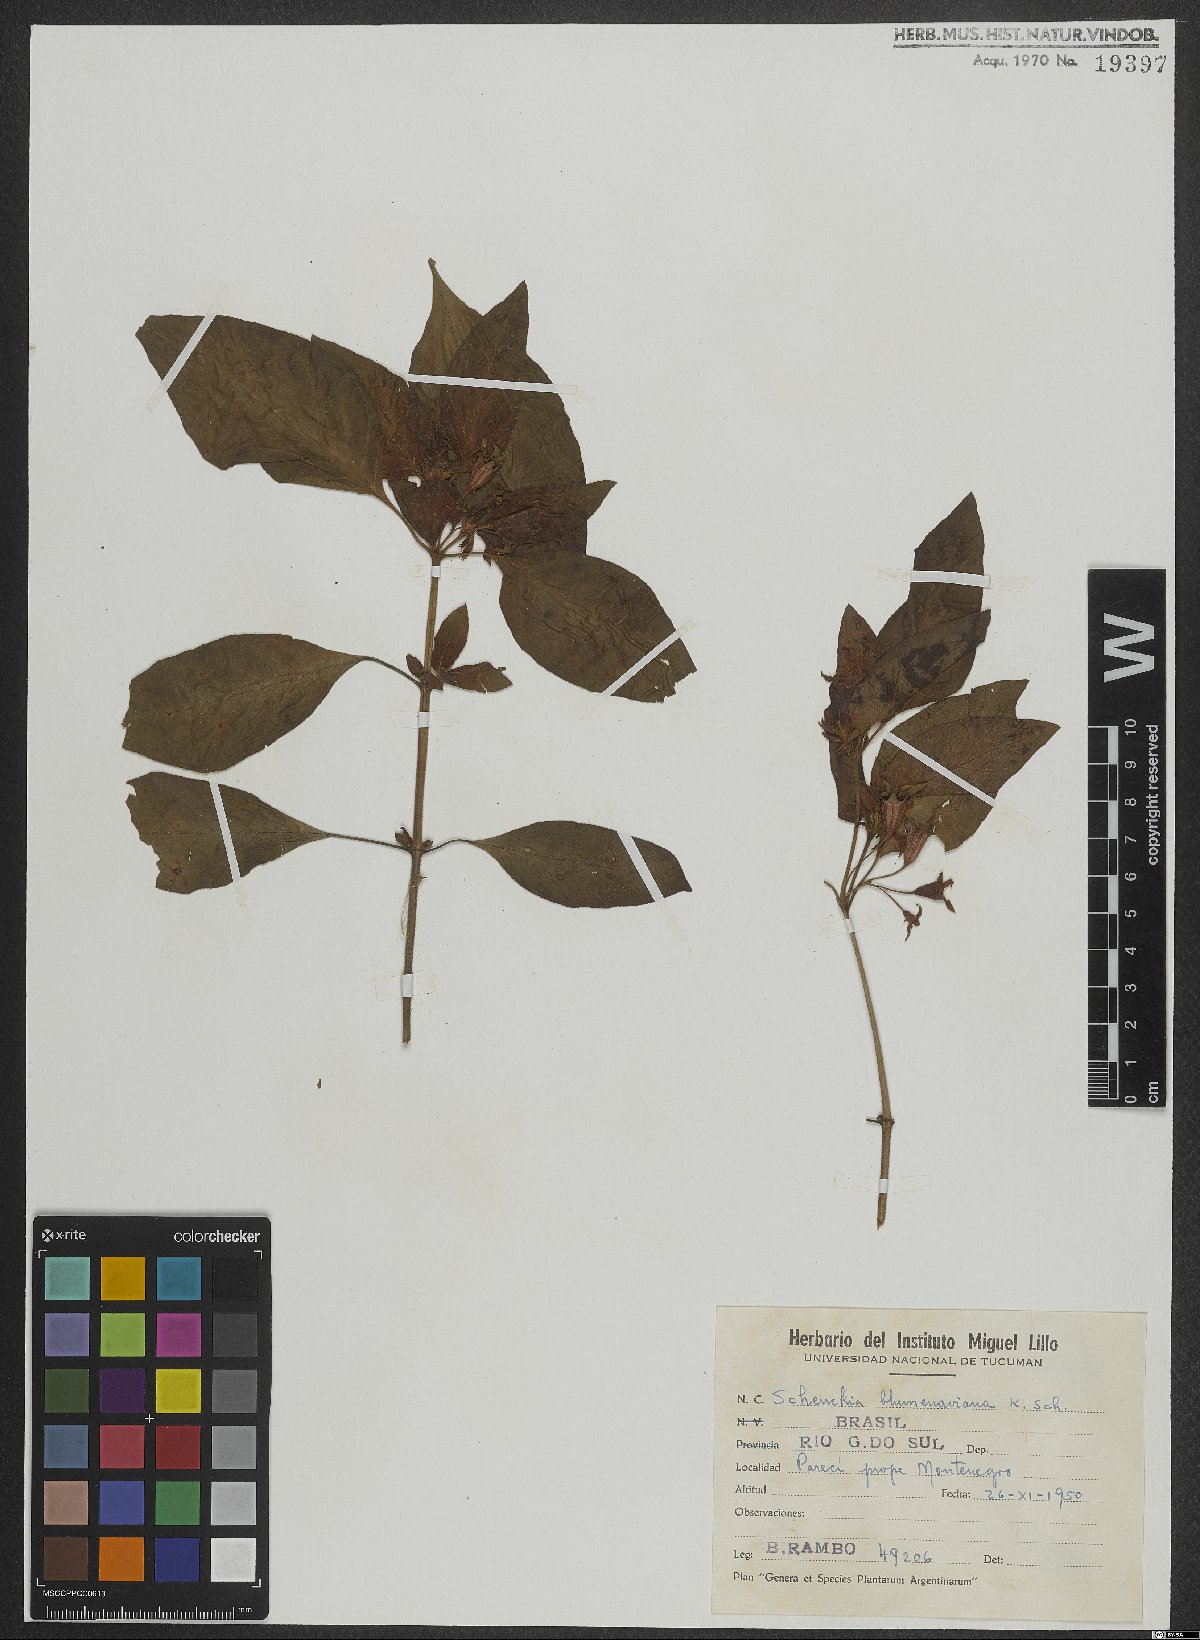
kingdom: Plantae
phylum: Tracheophyta
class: Magnoliopsida
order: Gentianales
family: Rubiaceae
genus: Deppea
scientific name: Deppea blumenaviensis
